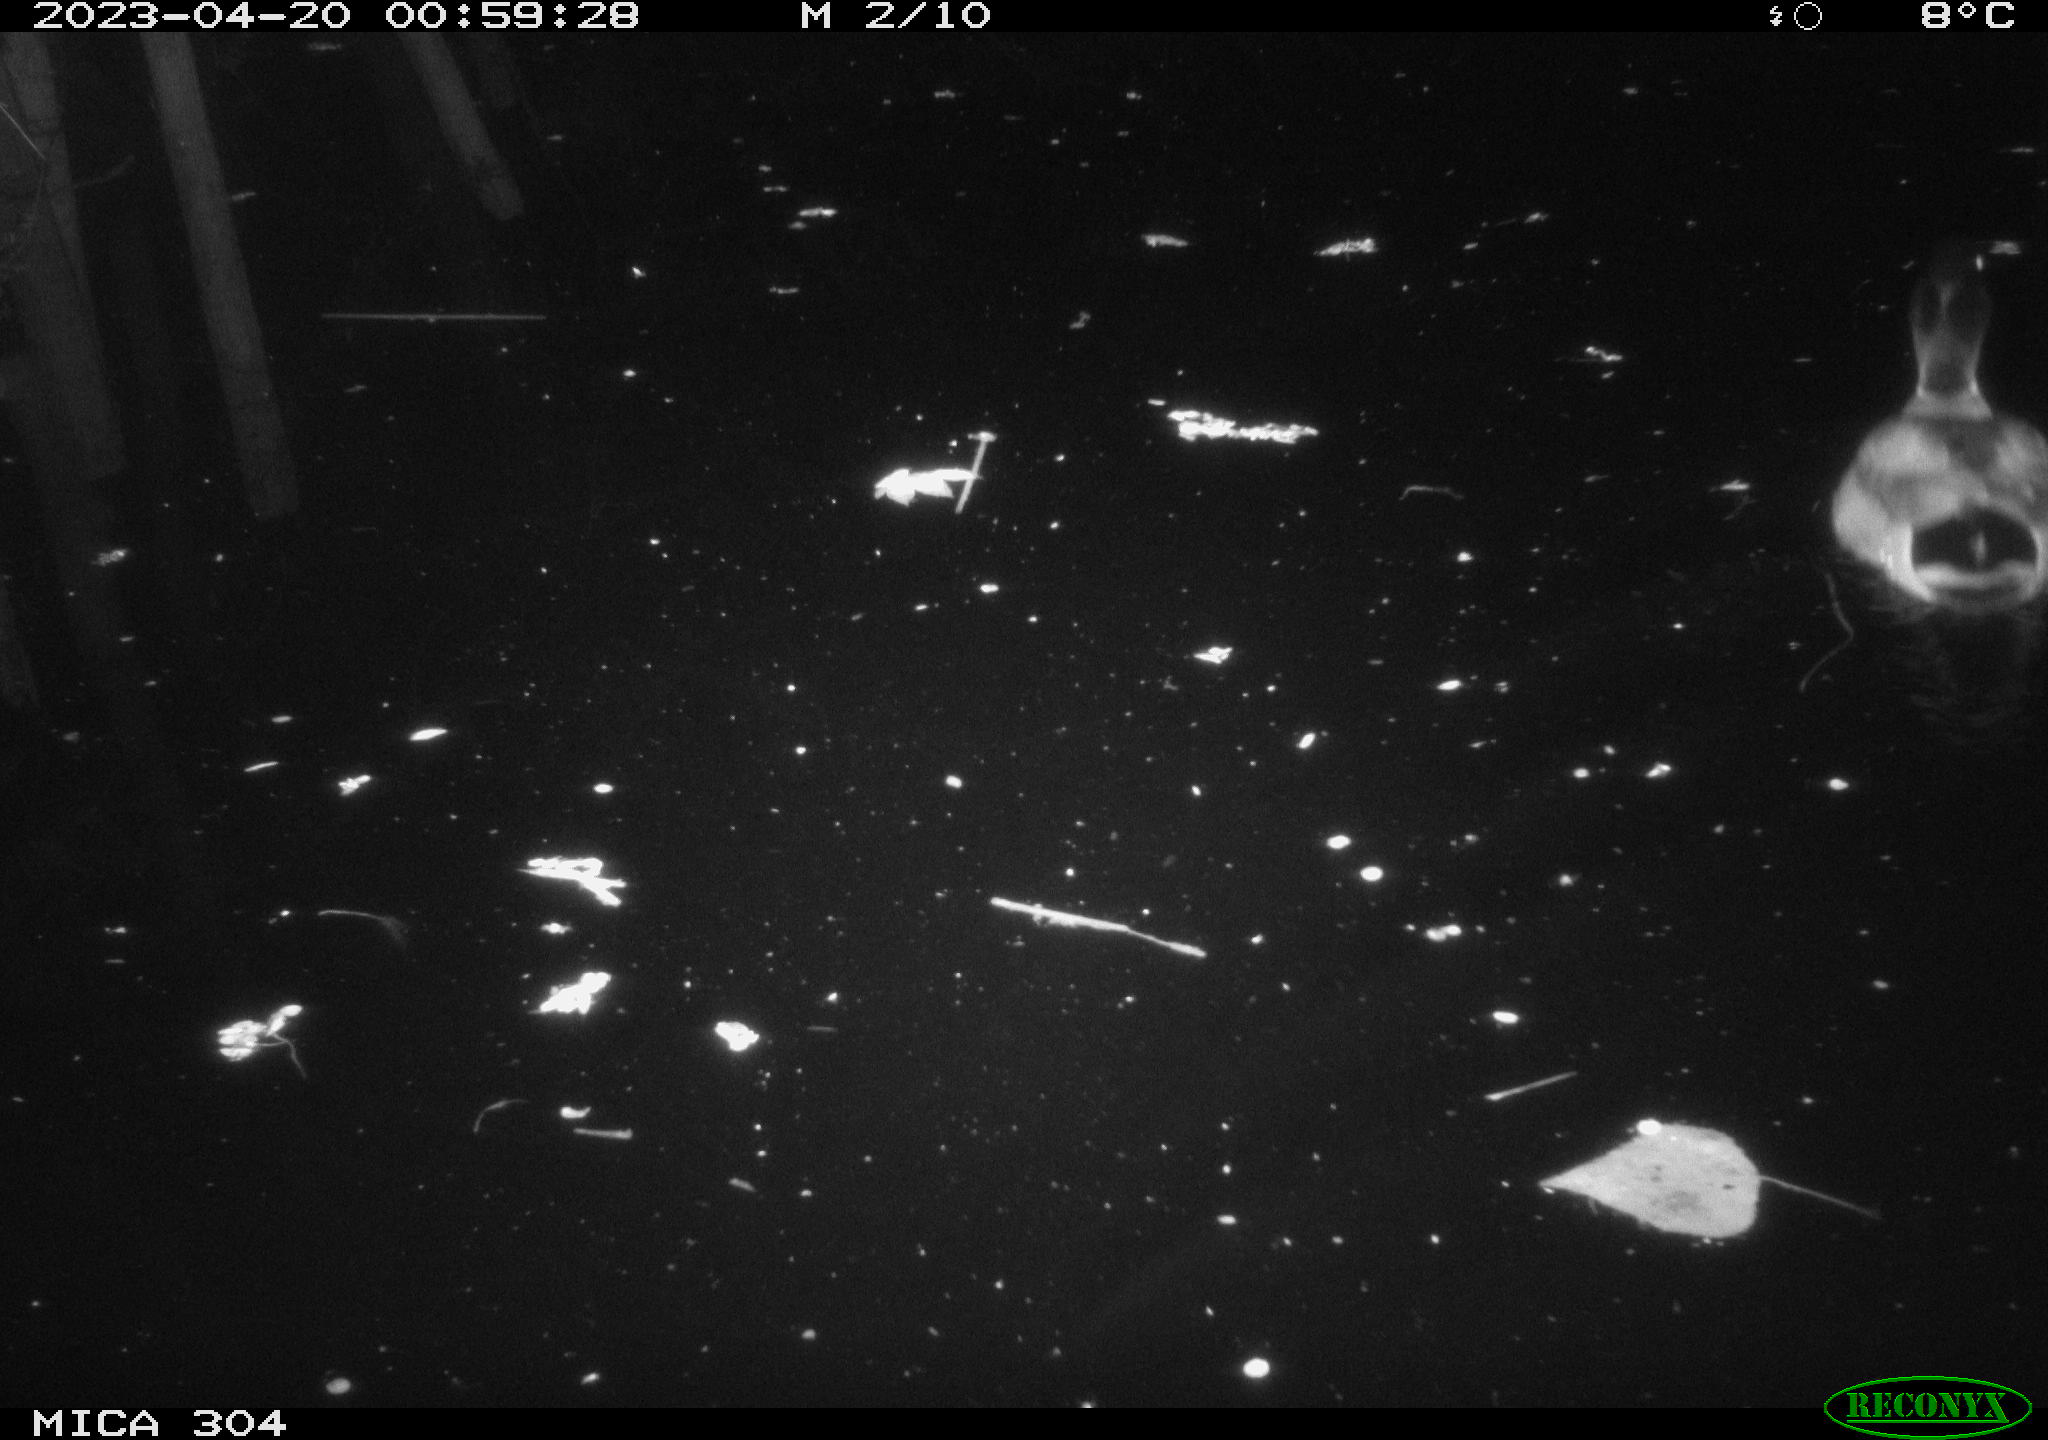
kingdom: Animalia
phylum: Chordata
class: Aves
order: Anseriformes
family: Anatidae
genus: Anas
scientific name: Anas
